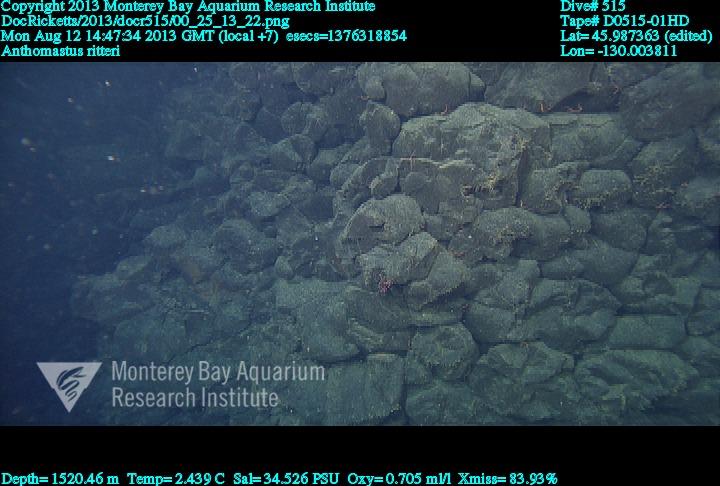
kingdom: Animalia
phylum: Cnidaria
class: Anthozoa
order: Scleralcyonacea
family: Coralliidae
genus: Heteropolypus
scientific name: Heteropolypus ritteri
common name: Ritter's soft coral
